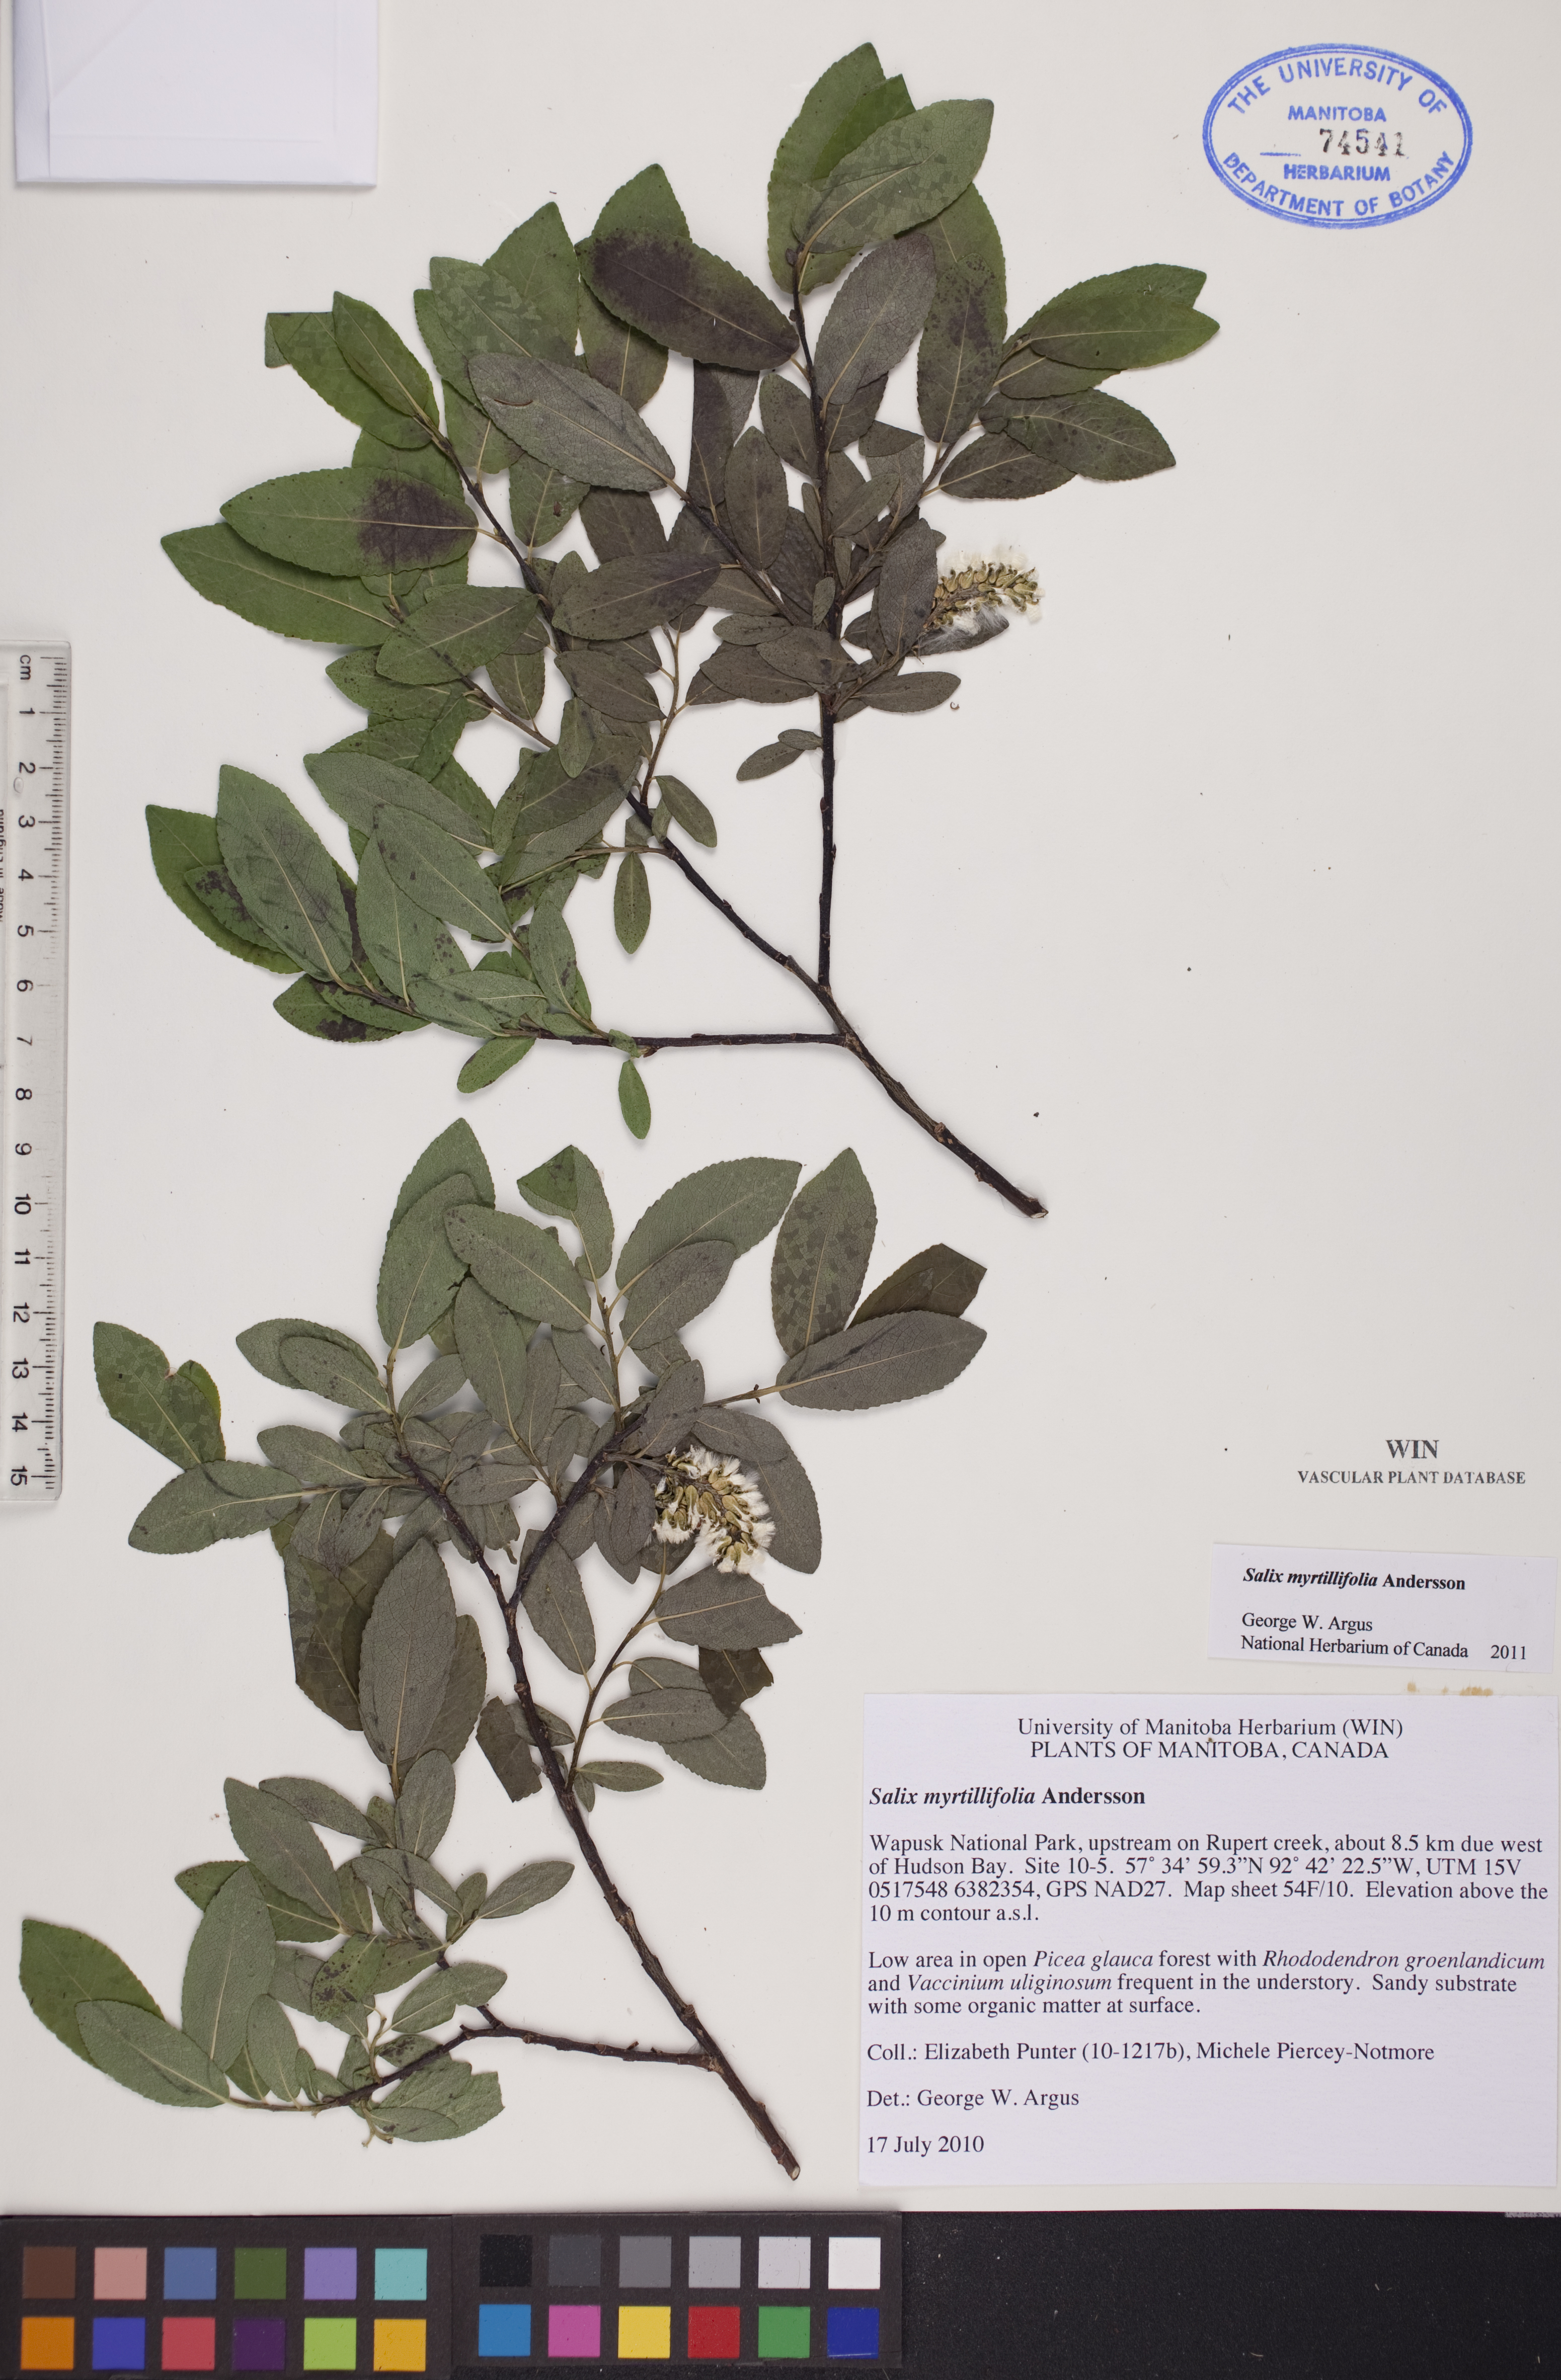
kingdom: Plantae
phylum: Tracheophyta
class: Magnoliopsida
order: Malpighiales
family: Salicaceae
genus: Salix
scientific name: Salix myrtillifolia
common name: Bilberry willow
